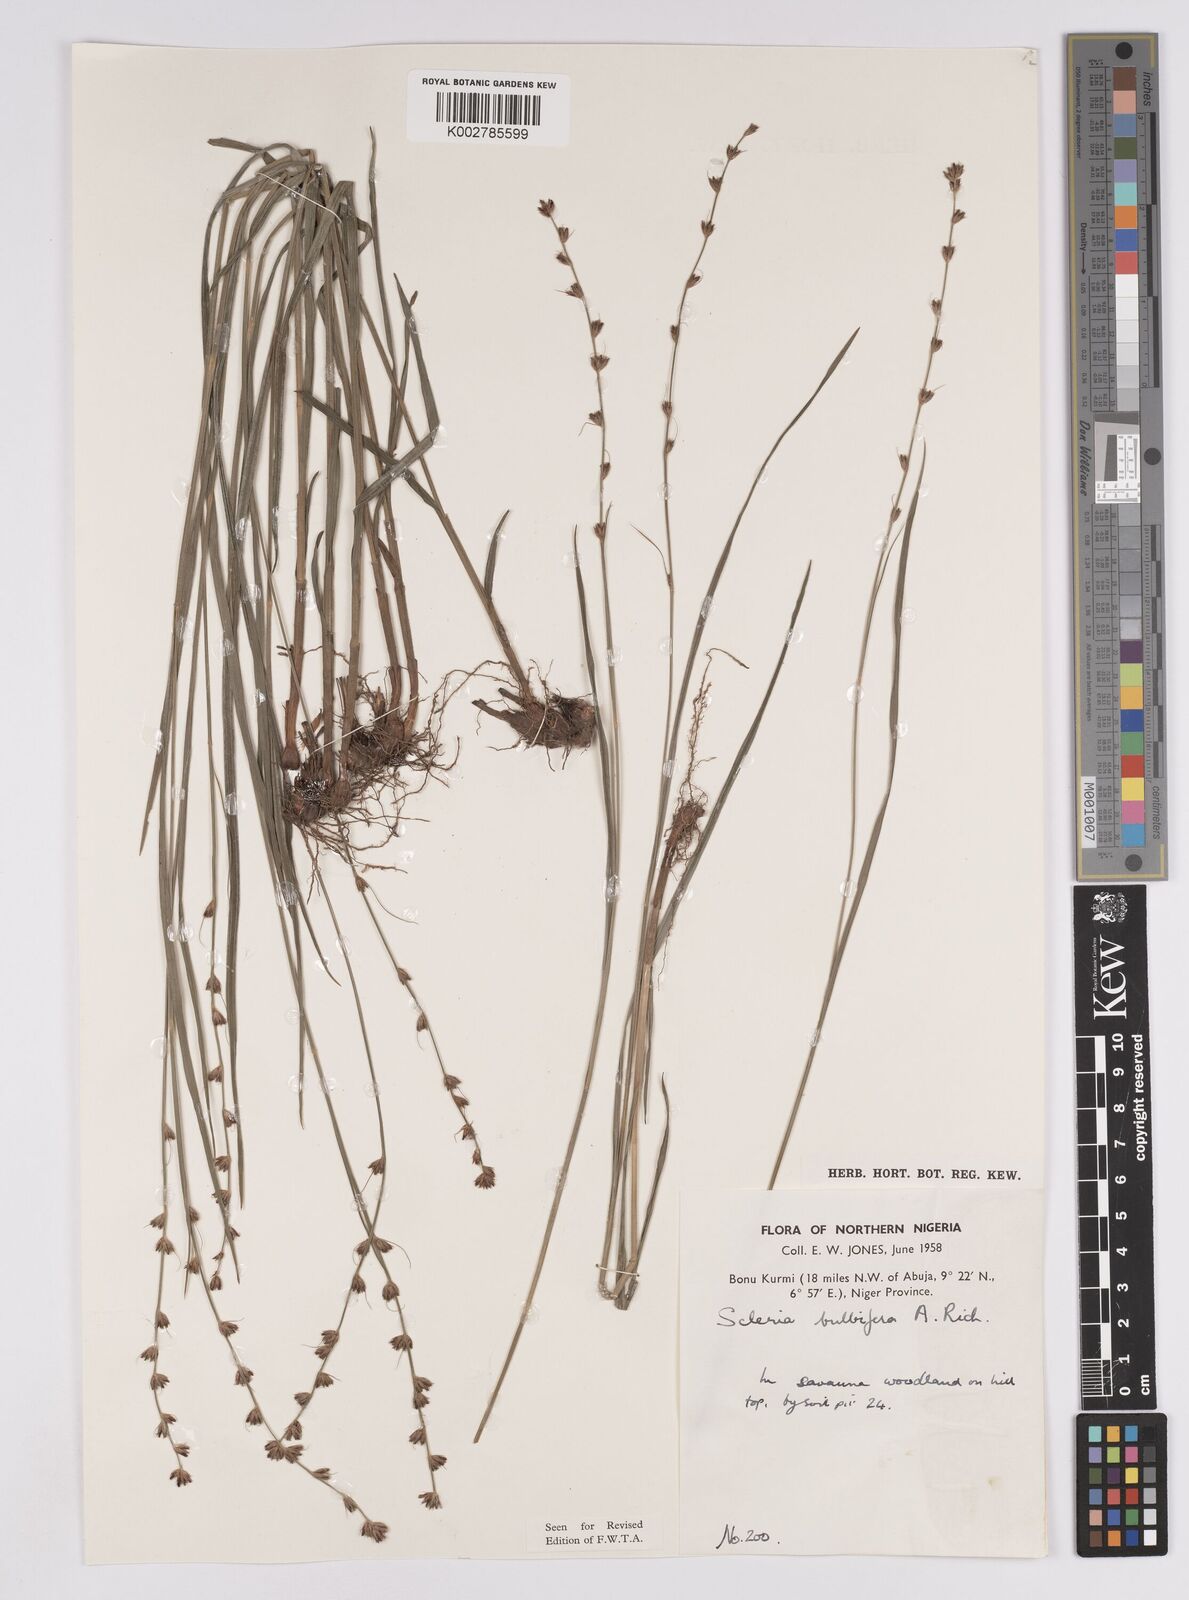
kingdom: Plantae
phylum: Tracheophyta
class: Liliopsida
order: Poales
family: Cyperaceae
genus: Scleria
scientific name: Scleria bulbifera
